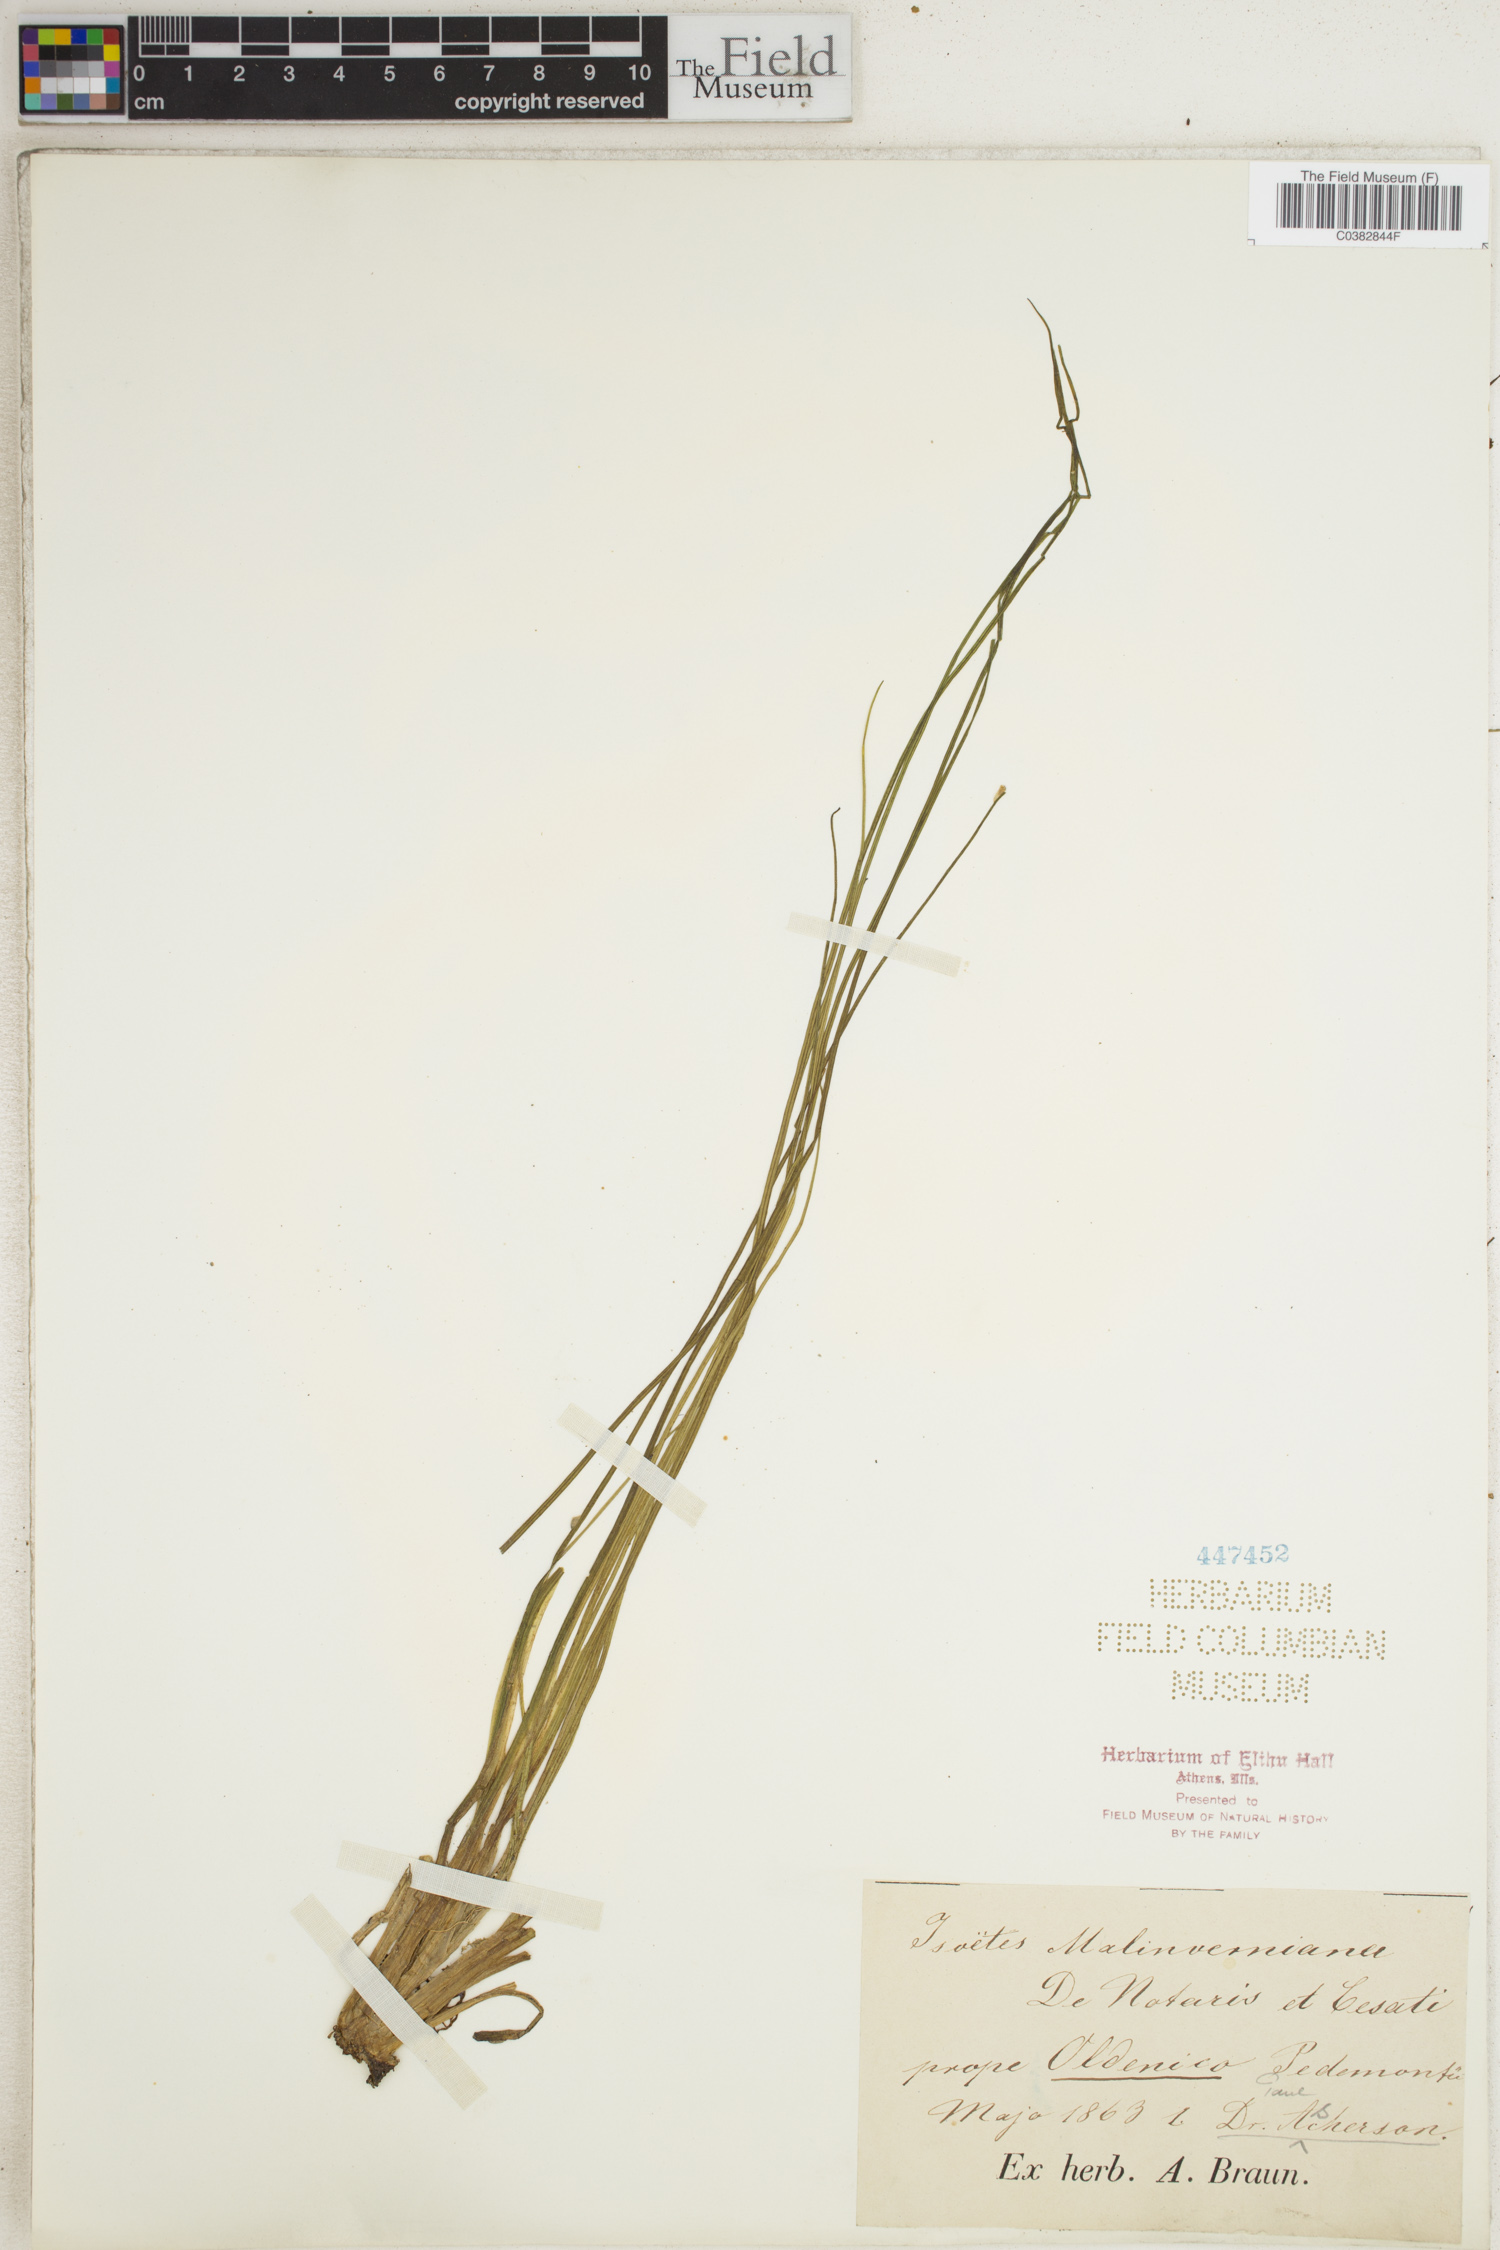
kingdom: Plantae
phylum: Tracheophyta
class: Lycopodiopsida
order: Isoetales
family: Isoetaceae
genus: Isoetes
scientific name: Isoetes sahyadrii
